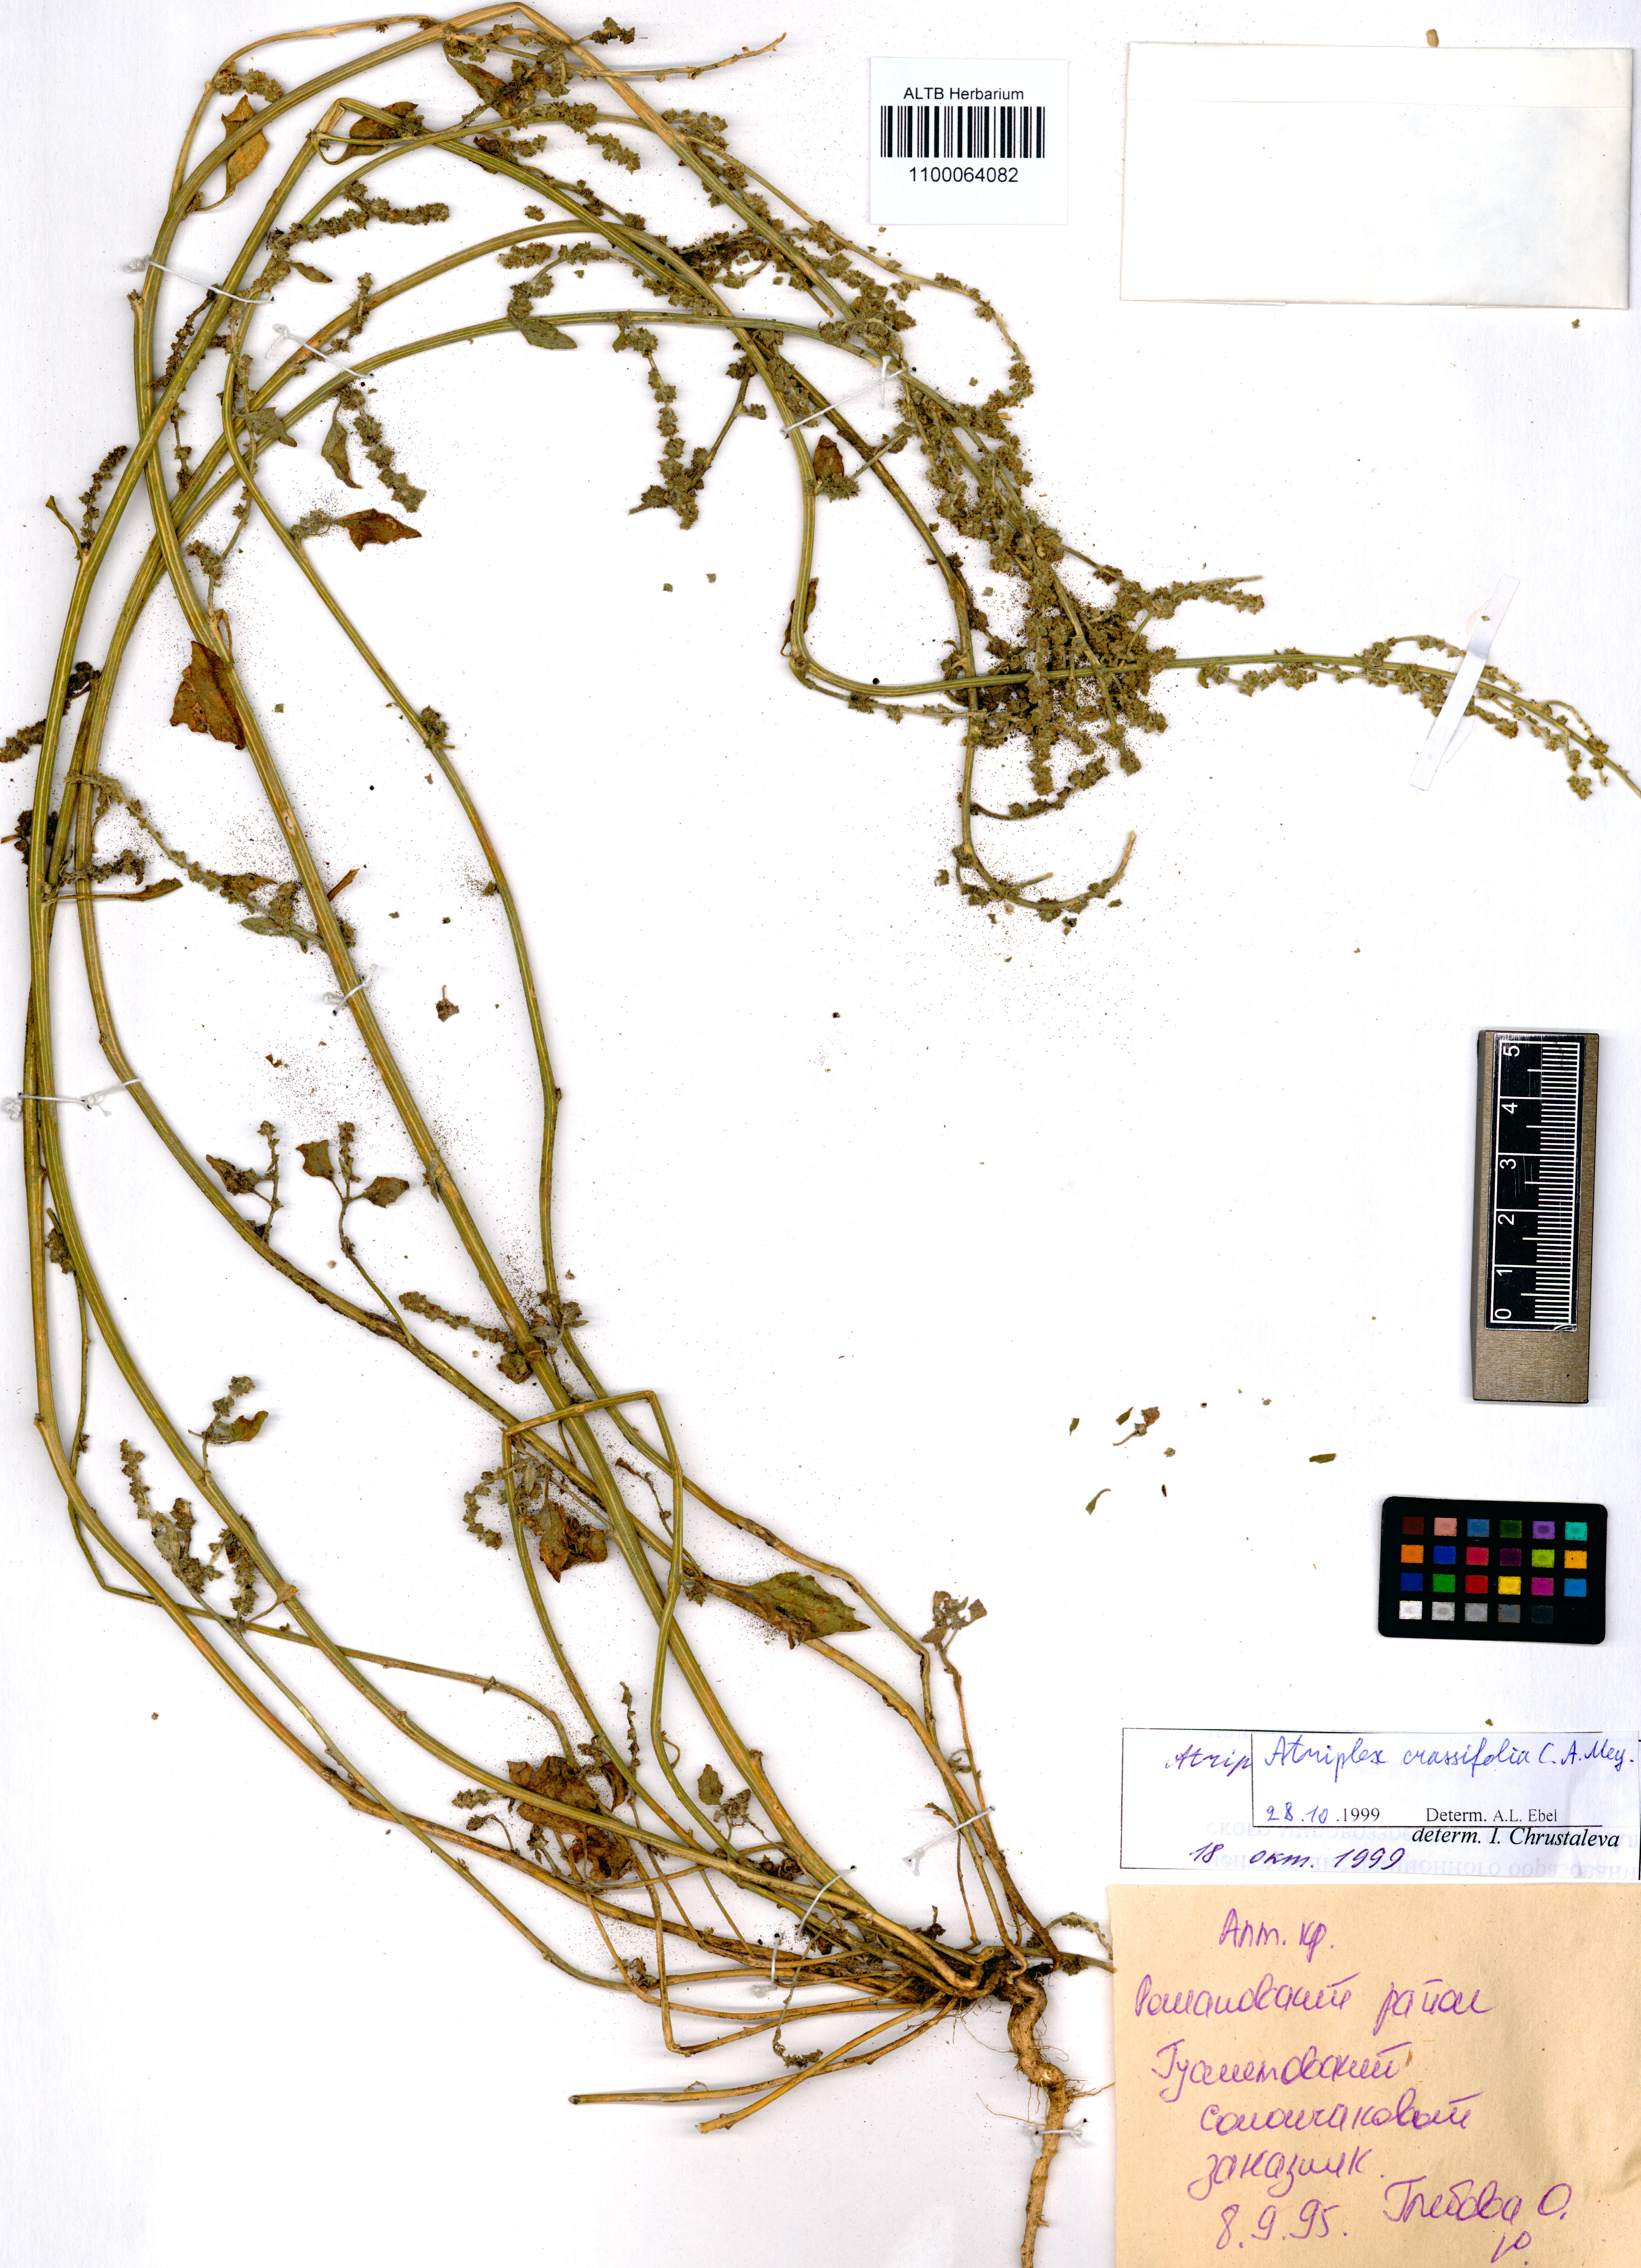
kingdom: Plantae
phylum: Tracheophyta
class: Magnoliopsida
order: Caryophyllales
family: Amaranthaceae
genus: Atriplex
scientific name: Atriplex crassifolia
